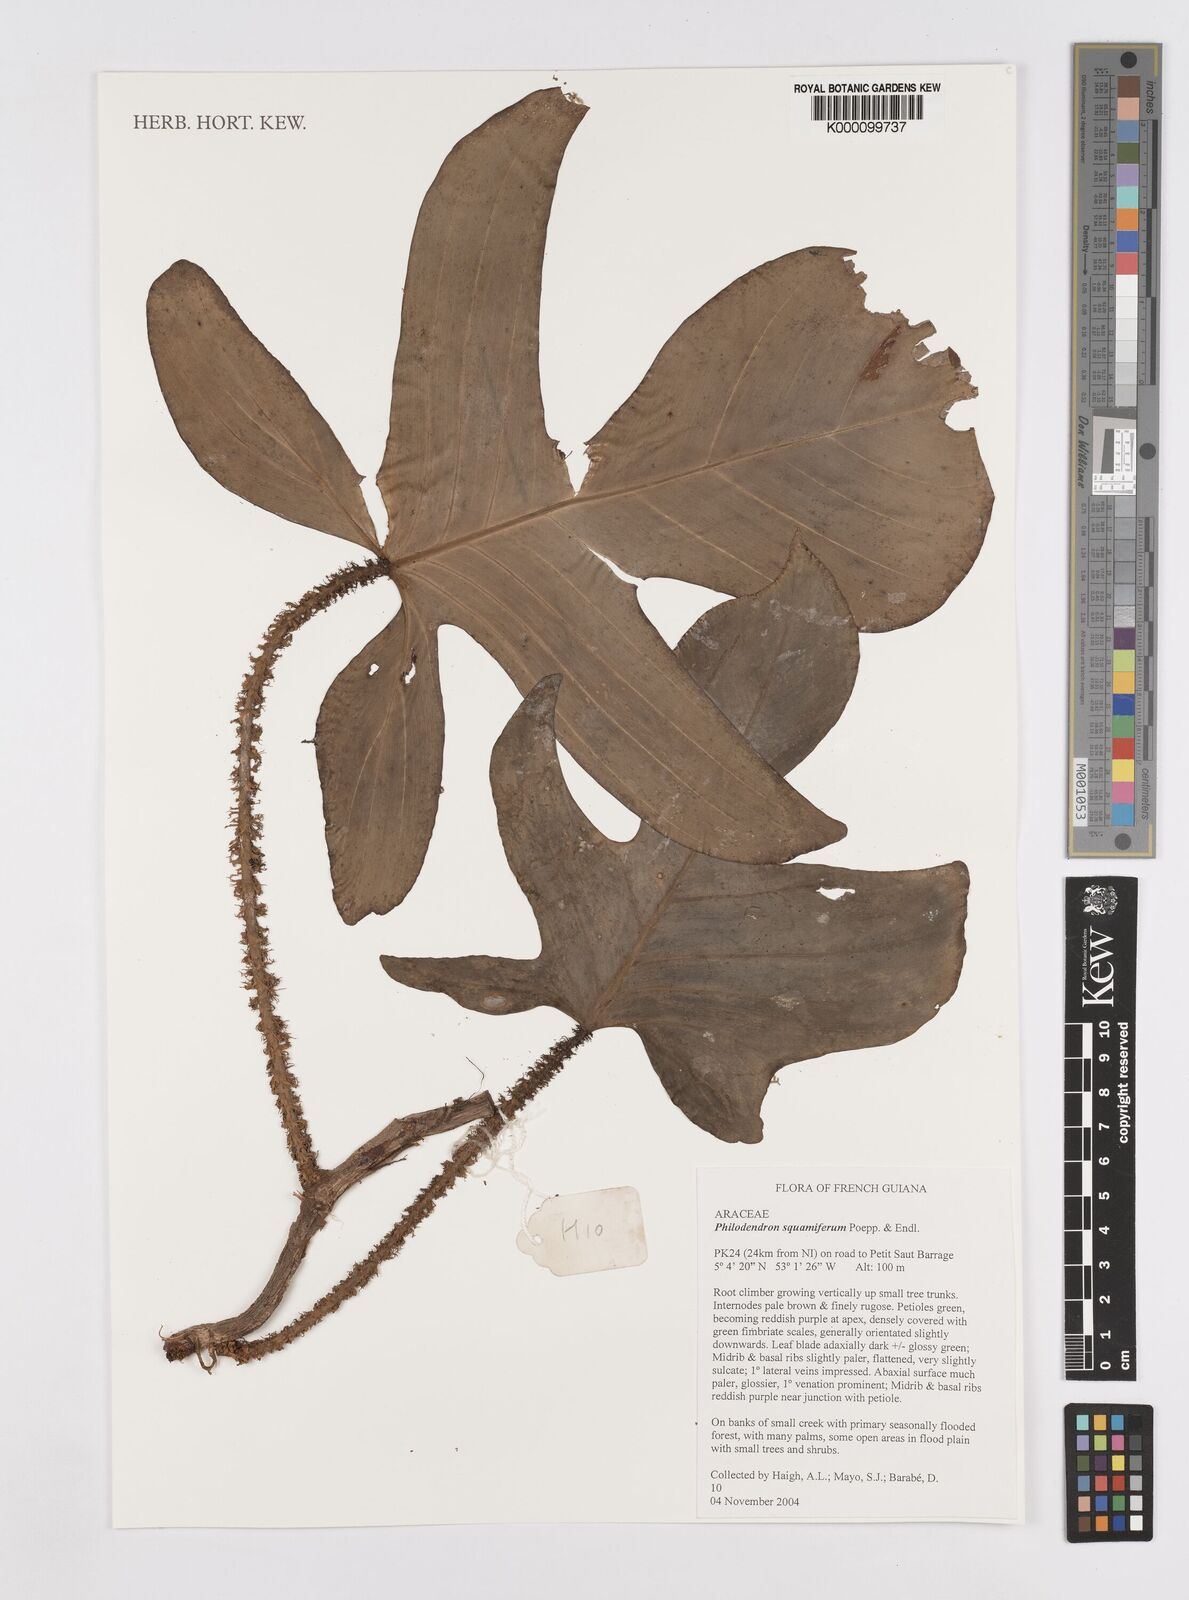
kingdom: Plantae
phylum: Tracheophyta
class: Liliopsida
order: Alismatales
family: Araceae
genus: Philodendron
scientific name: Philodendron squamiferum
